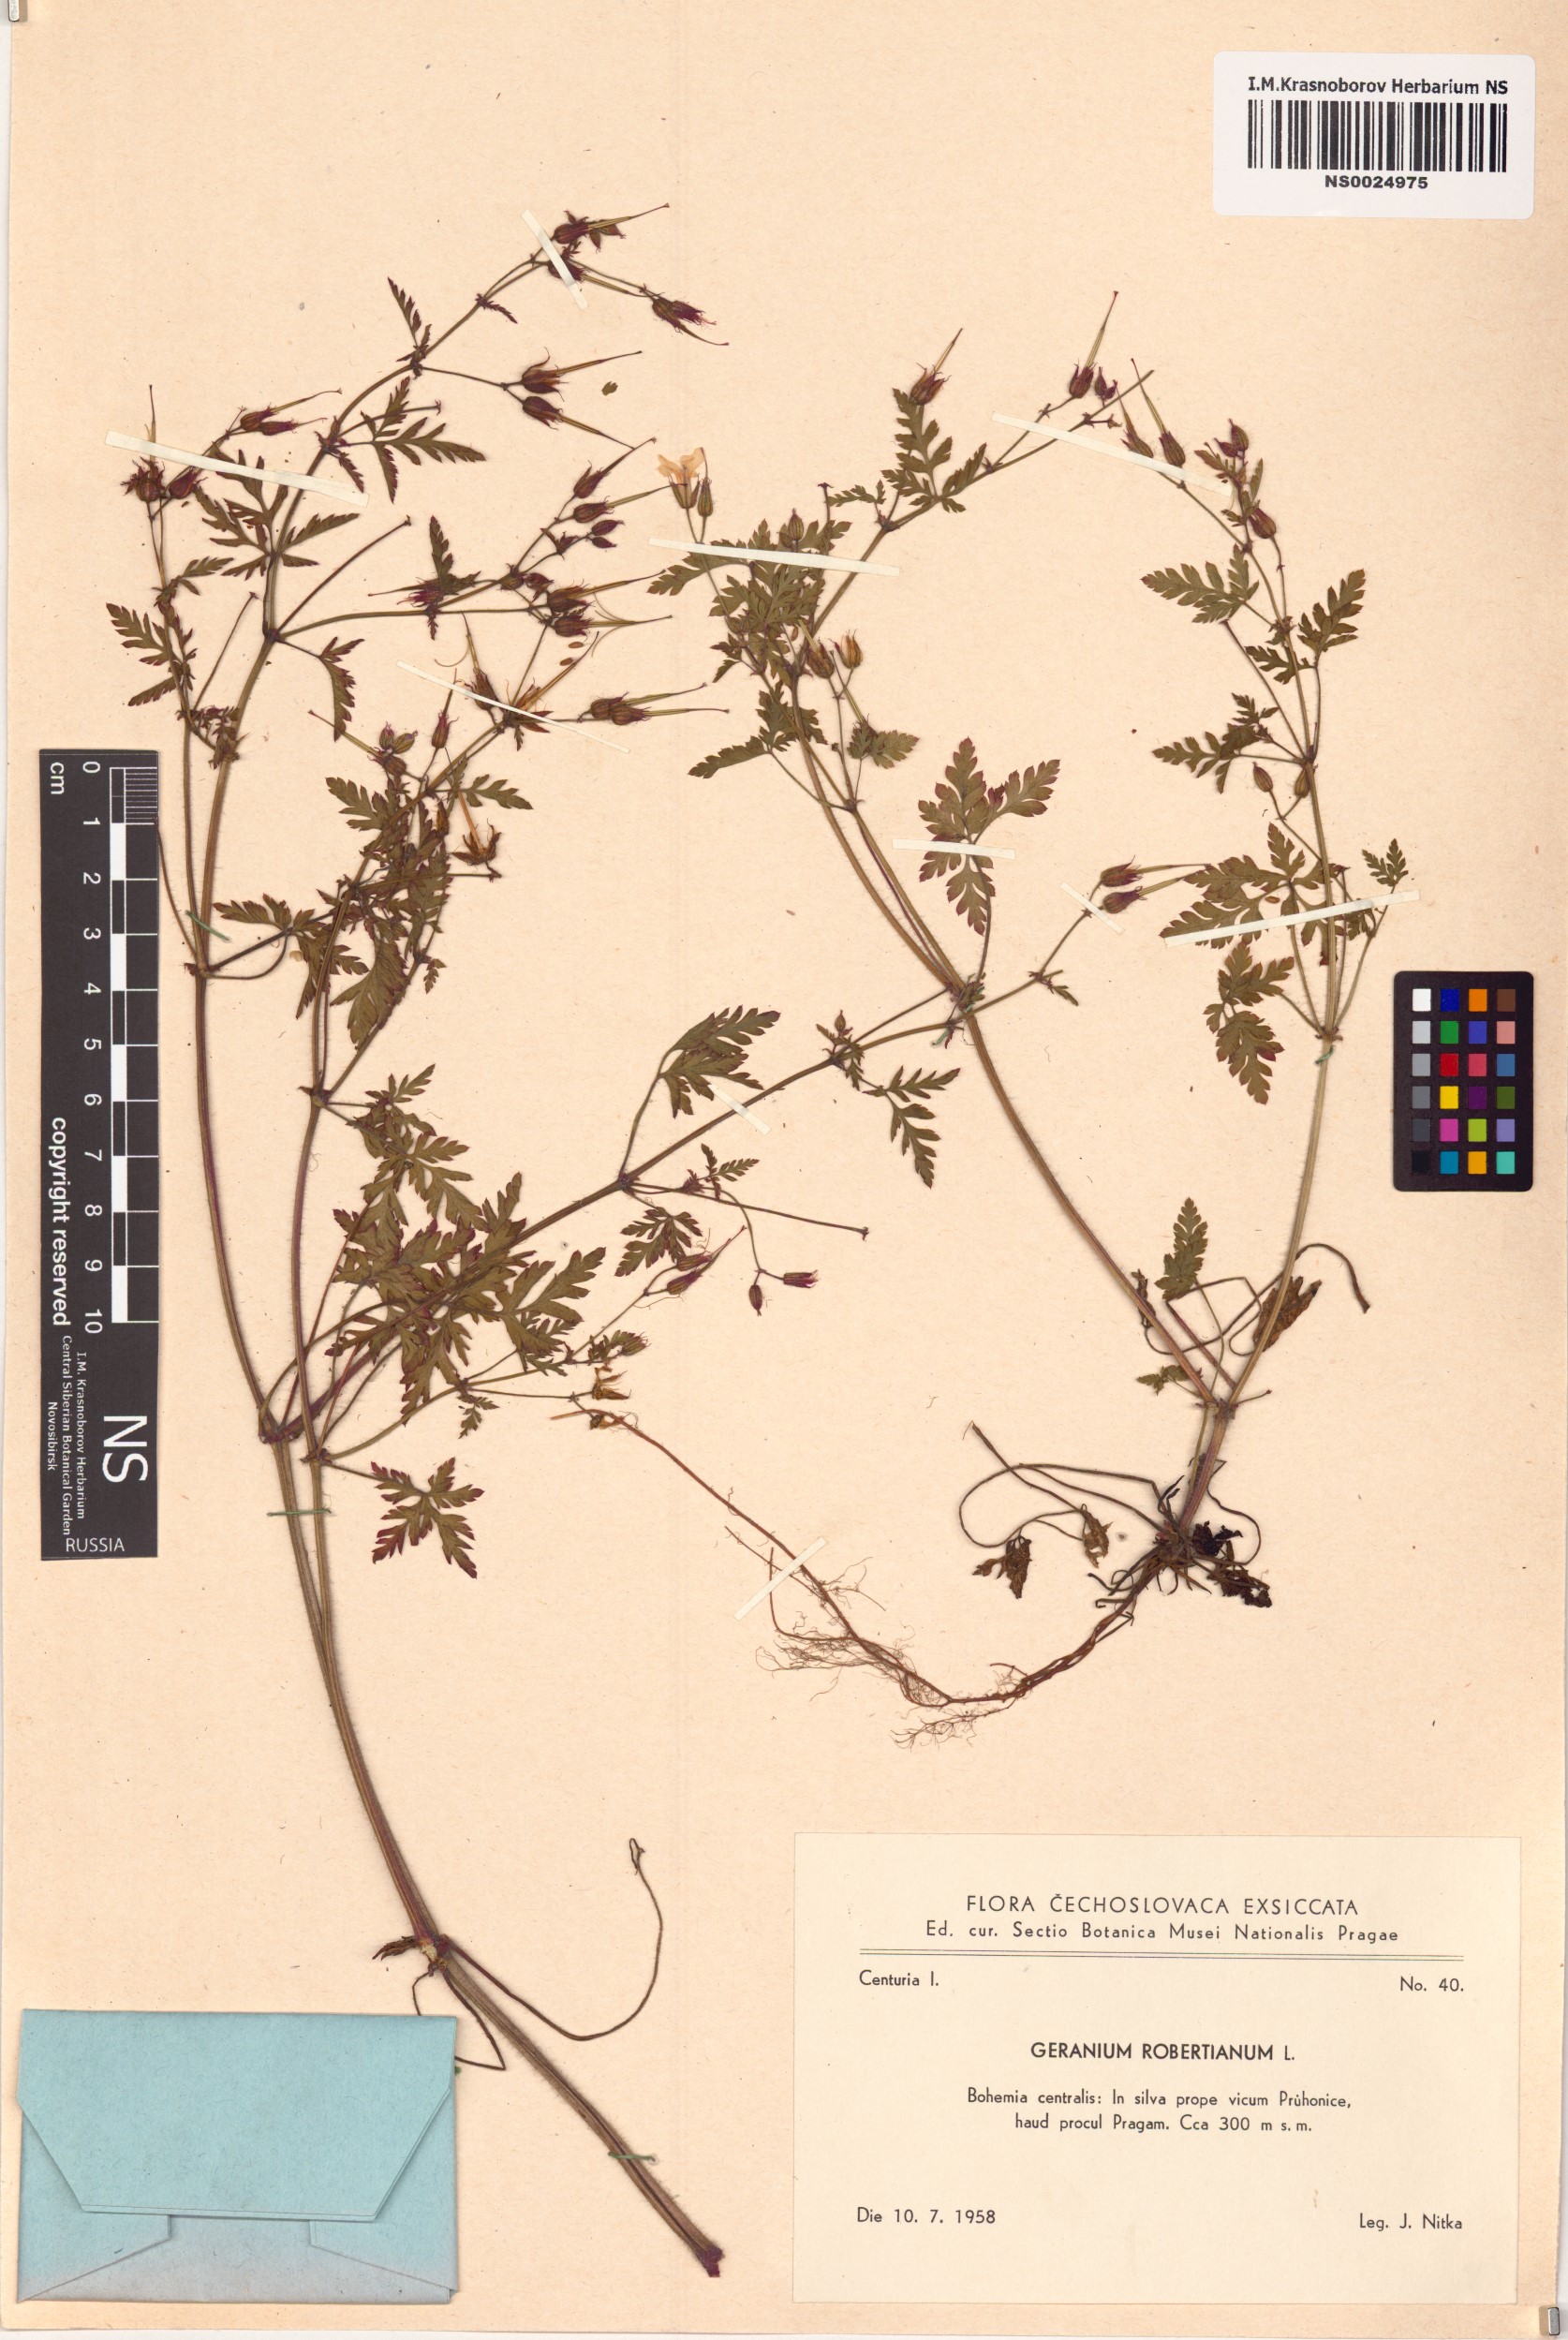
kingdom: Plantae
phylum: Tracheophyta
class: Magnoliopsida
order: Geraniales
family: Geraniaceae
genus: Geranium
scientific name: Geranium robertianum
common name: Herb-robert
